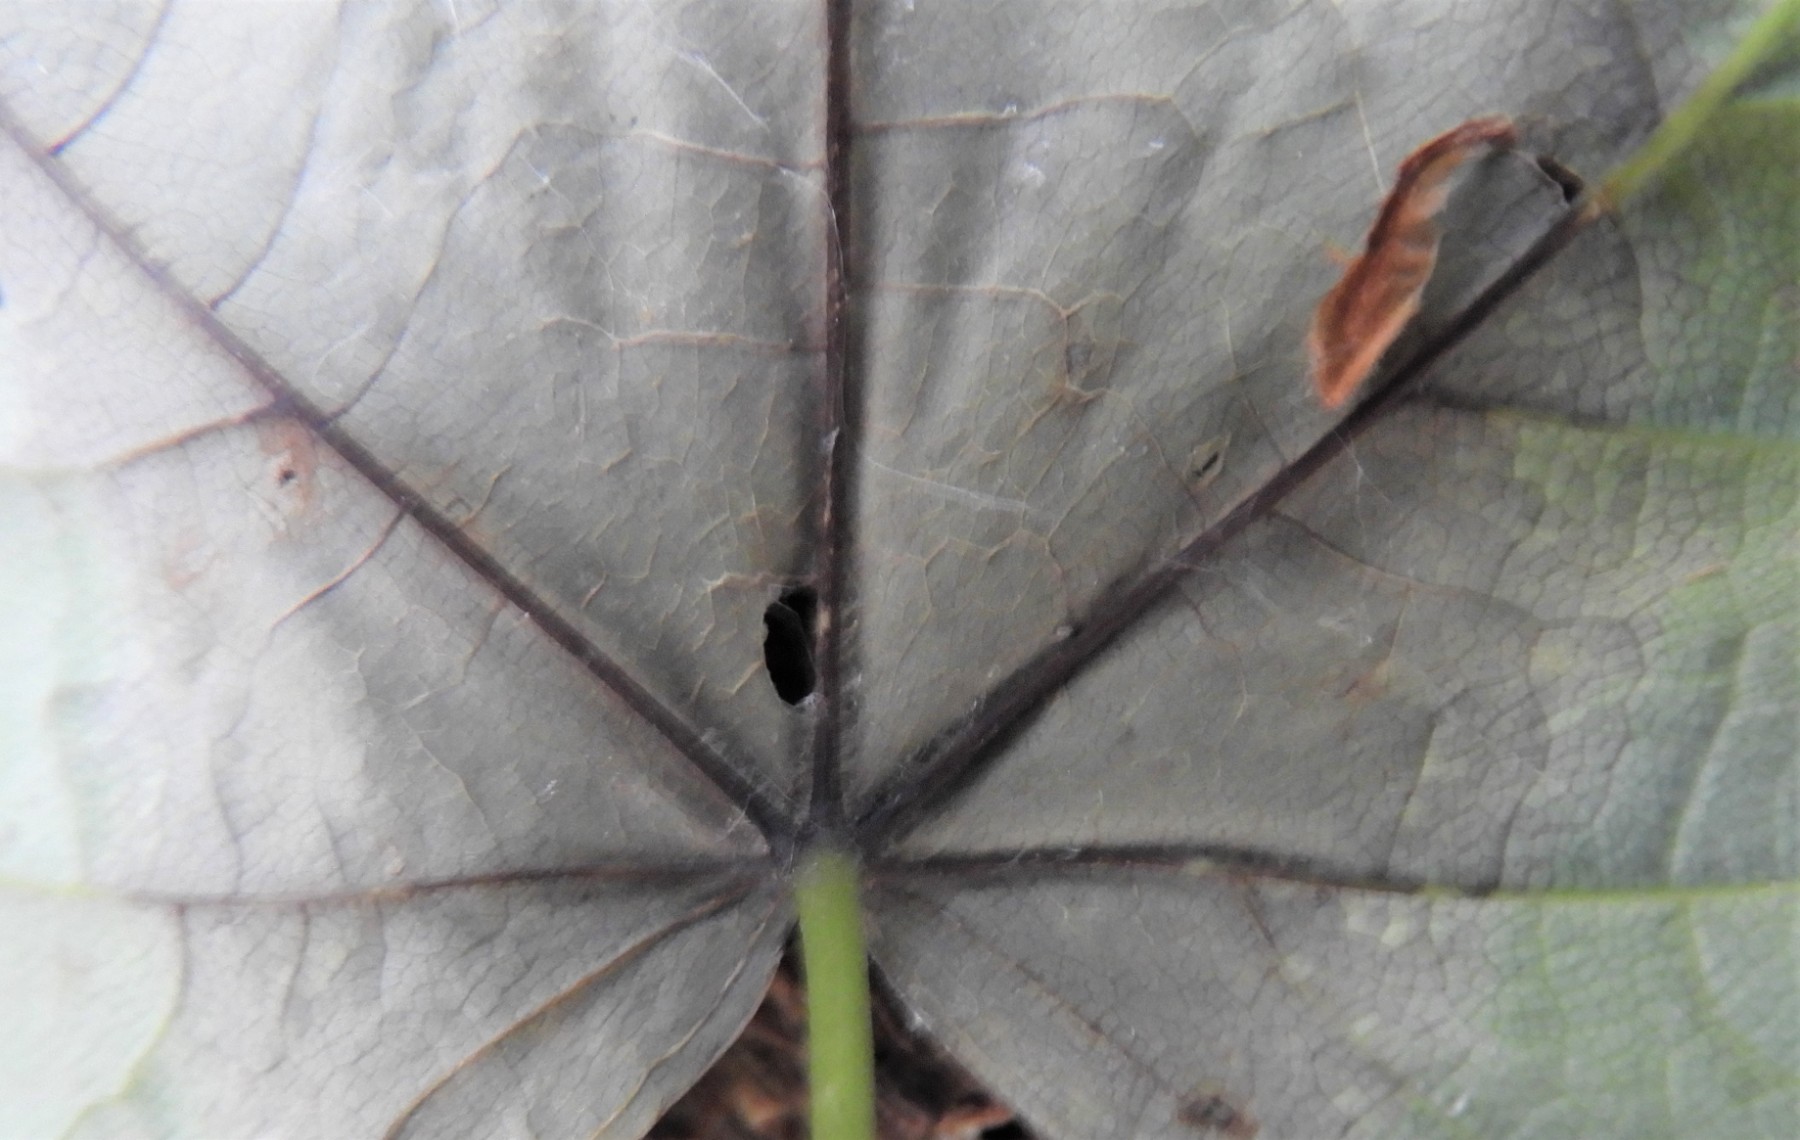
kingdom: Fungi
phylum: Ascomycota
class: Sordariomycetes
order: Diaporthales
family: Gnomoniaceae
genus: Pleuroceras
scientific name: Pleuroceras pseudoplatani
